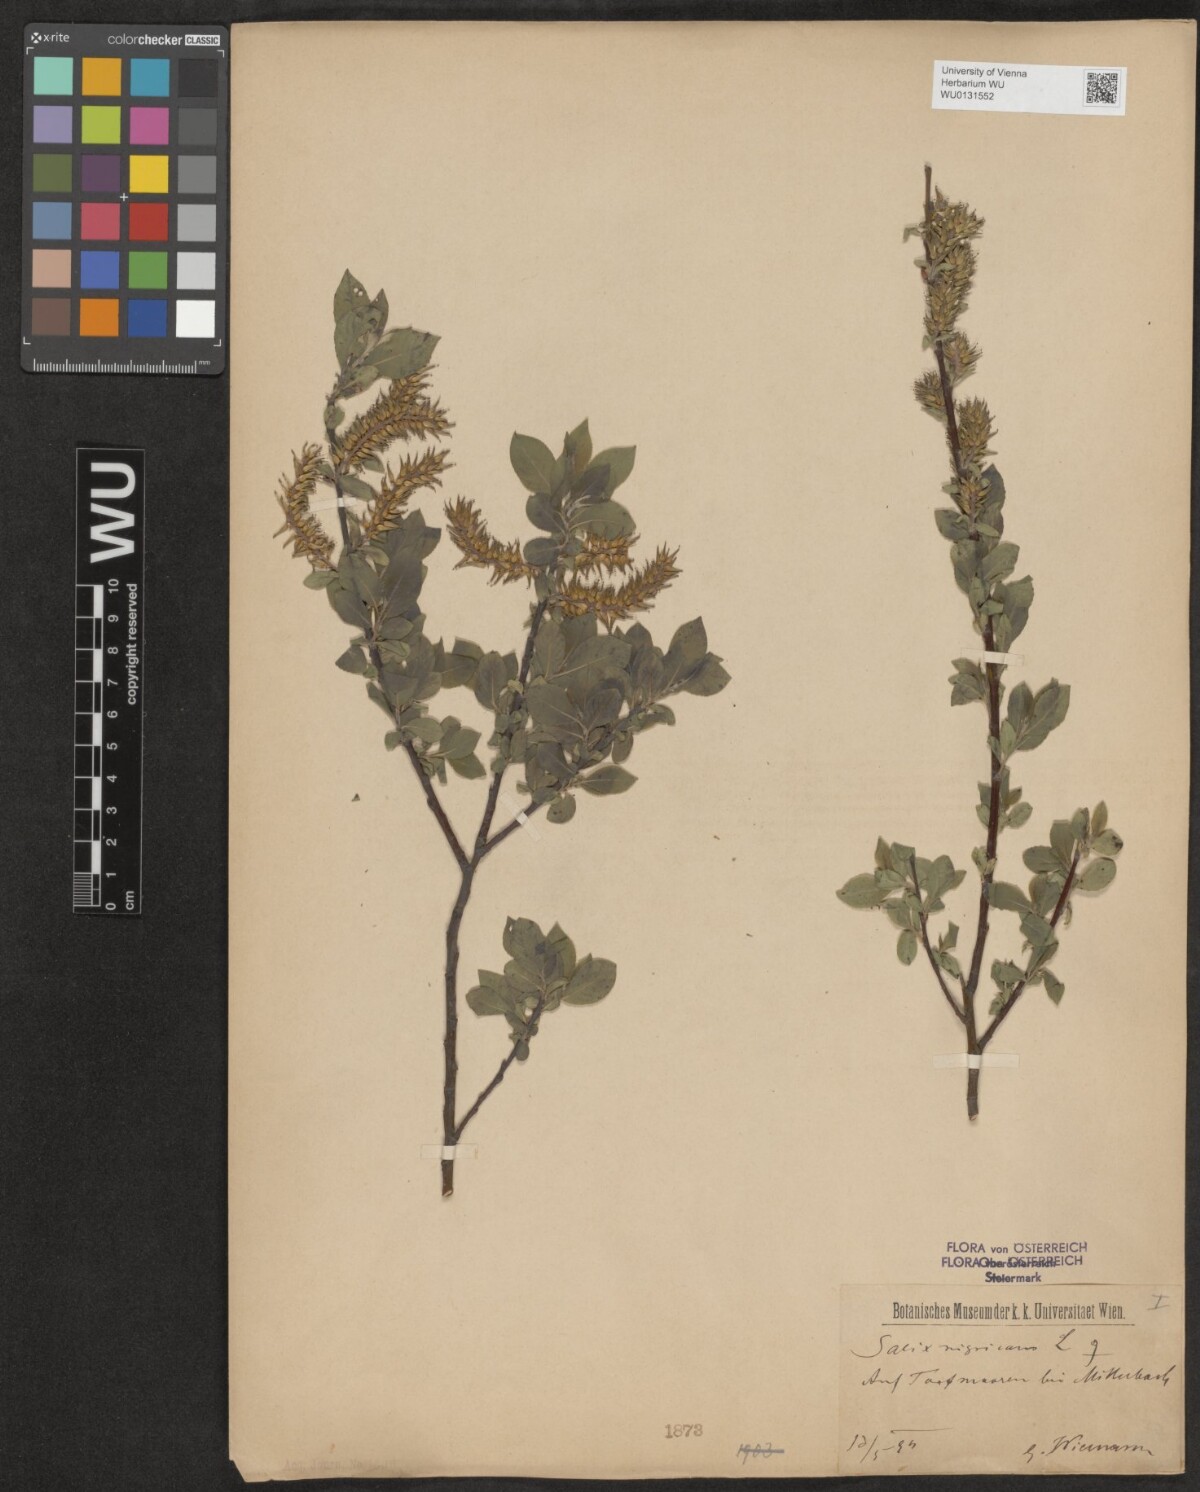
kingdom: Plantae
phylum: Tracheophyta
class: Magnoliopsida
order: Malpighiales
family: Salicaceae
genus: Salix
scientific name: Salix myrsinifolia
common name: Dark-leaved willow
